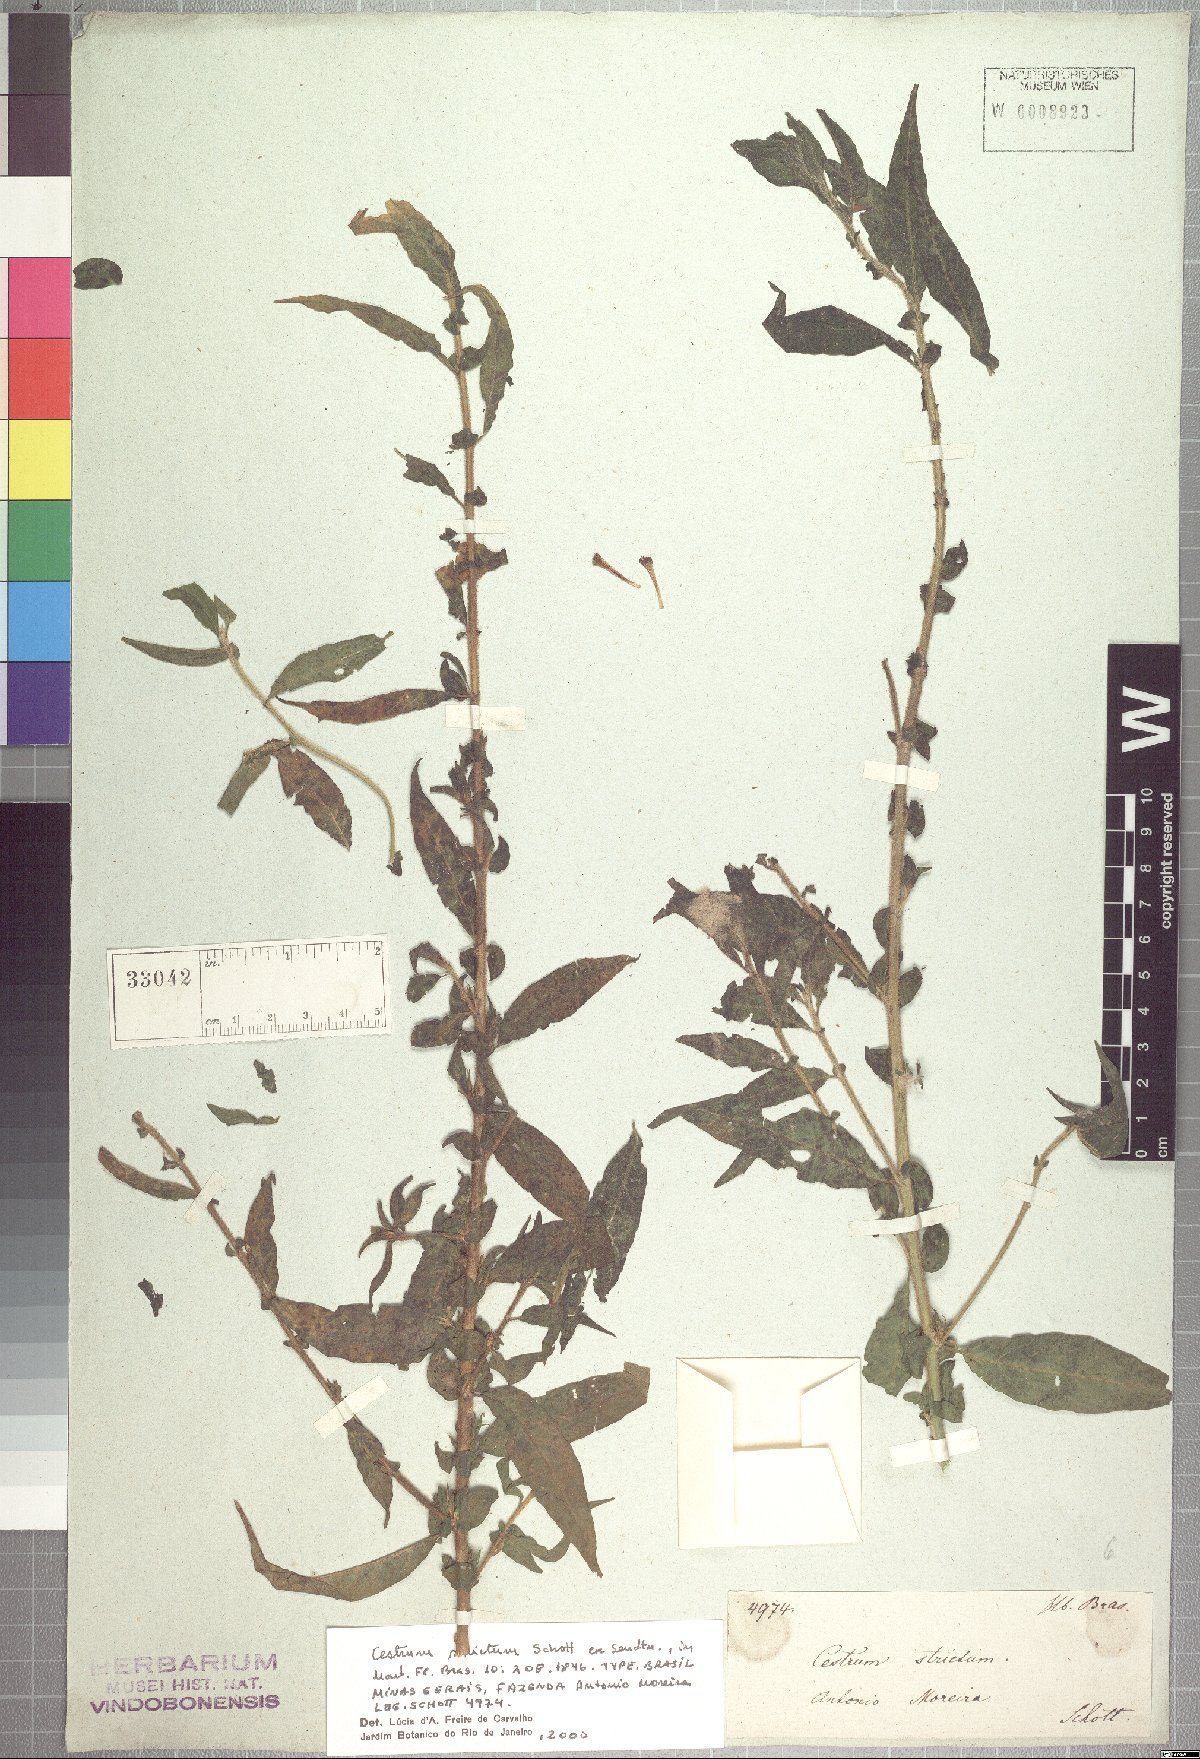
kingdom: Plantae
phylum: Tracheophyta
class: Magnoliopsida
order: Solanales
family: Solanaceae
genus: Cestrum
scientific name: Cestrum strictum
